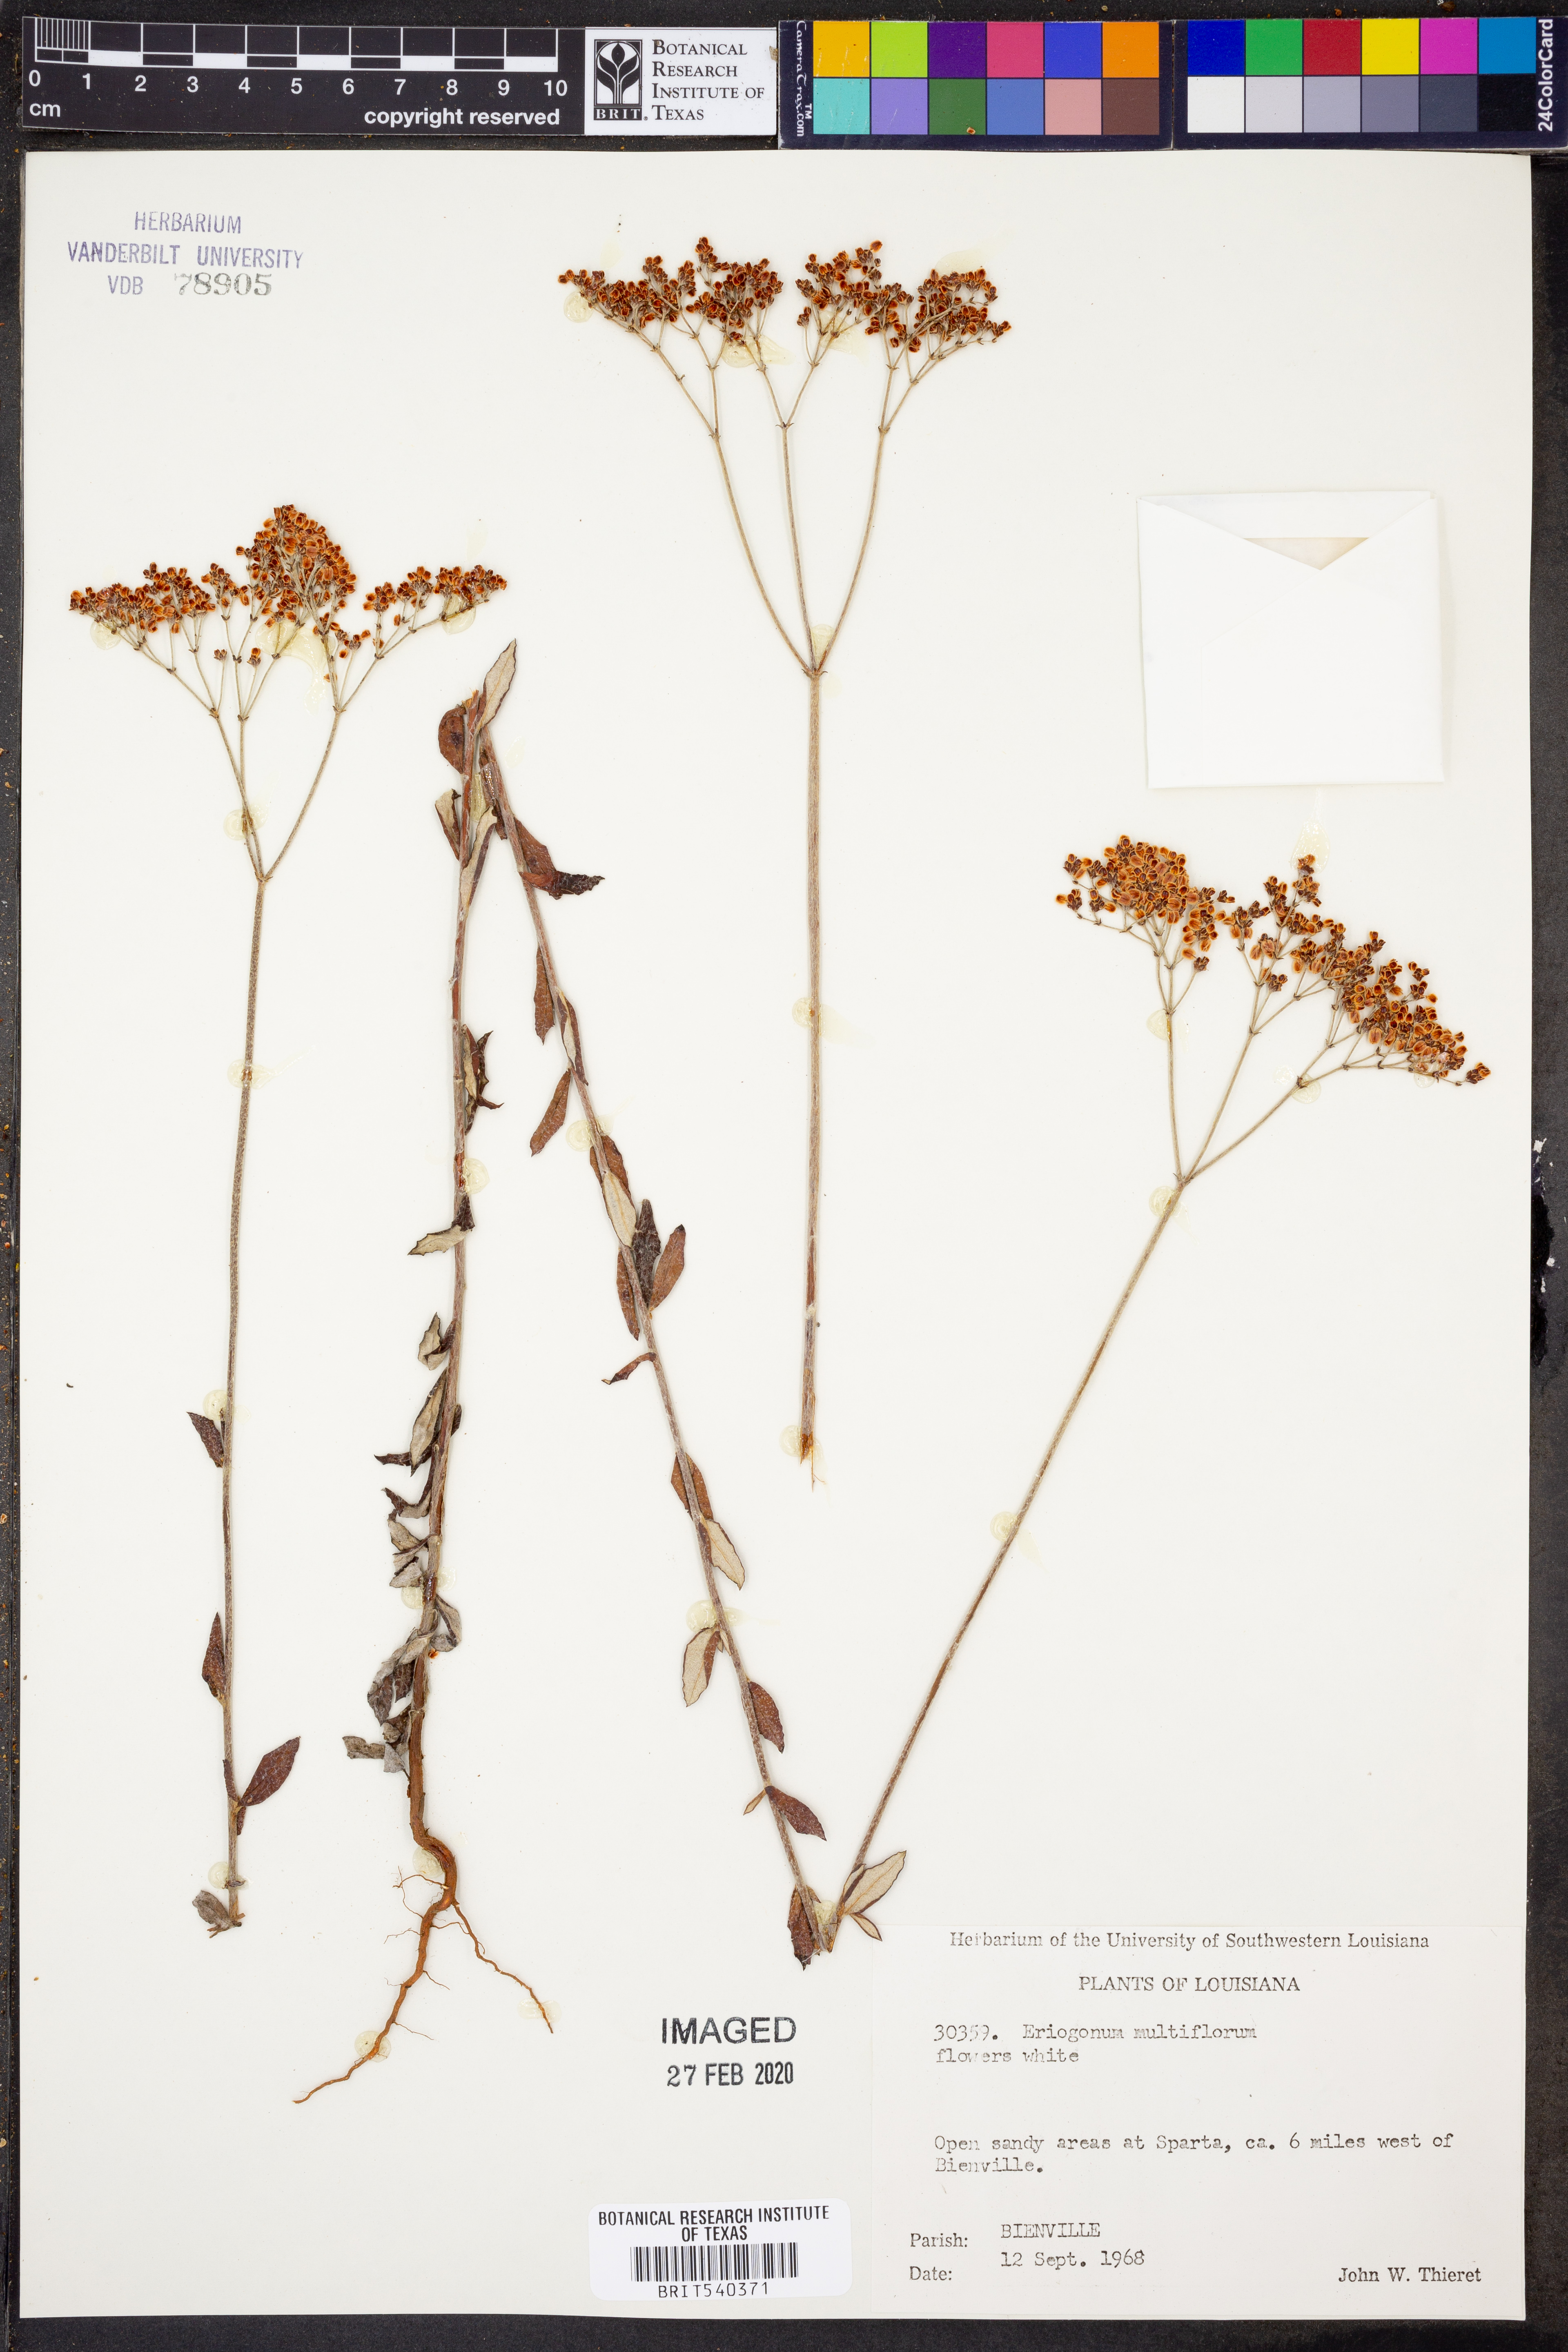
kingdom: Plantae
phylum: Tracheophyta
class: Magnoliopsida
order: Caryophyllales
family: Polygonaceae
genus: Eriogonum
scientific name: Eriogonum multiflorum
